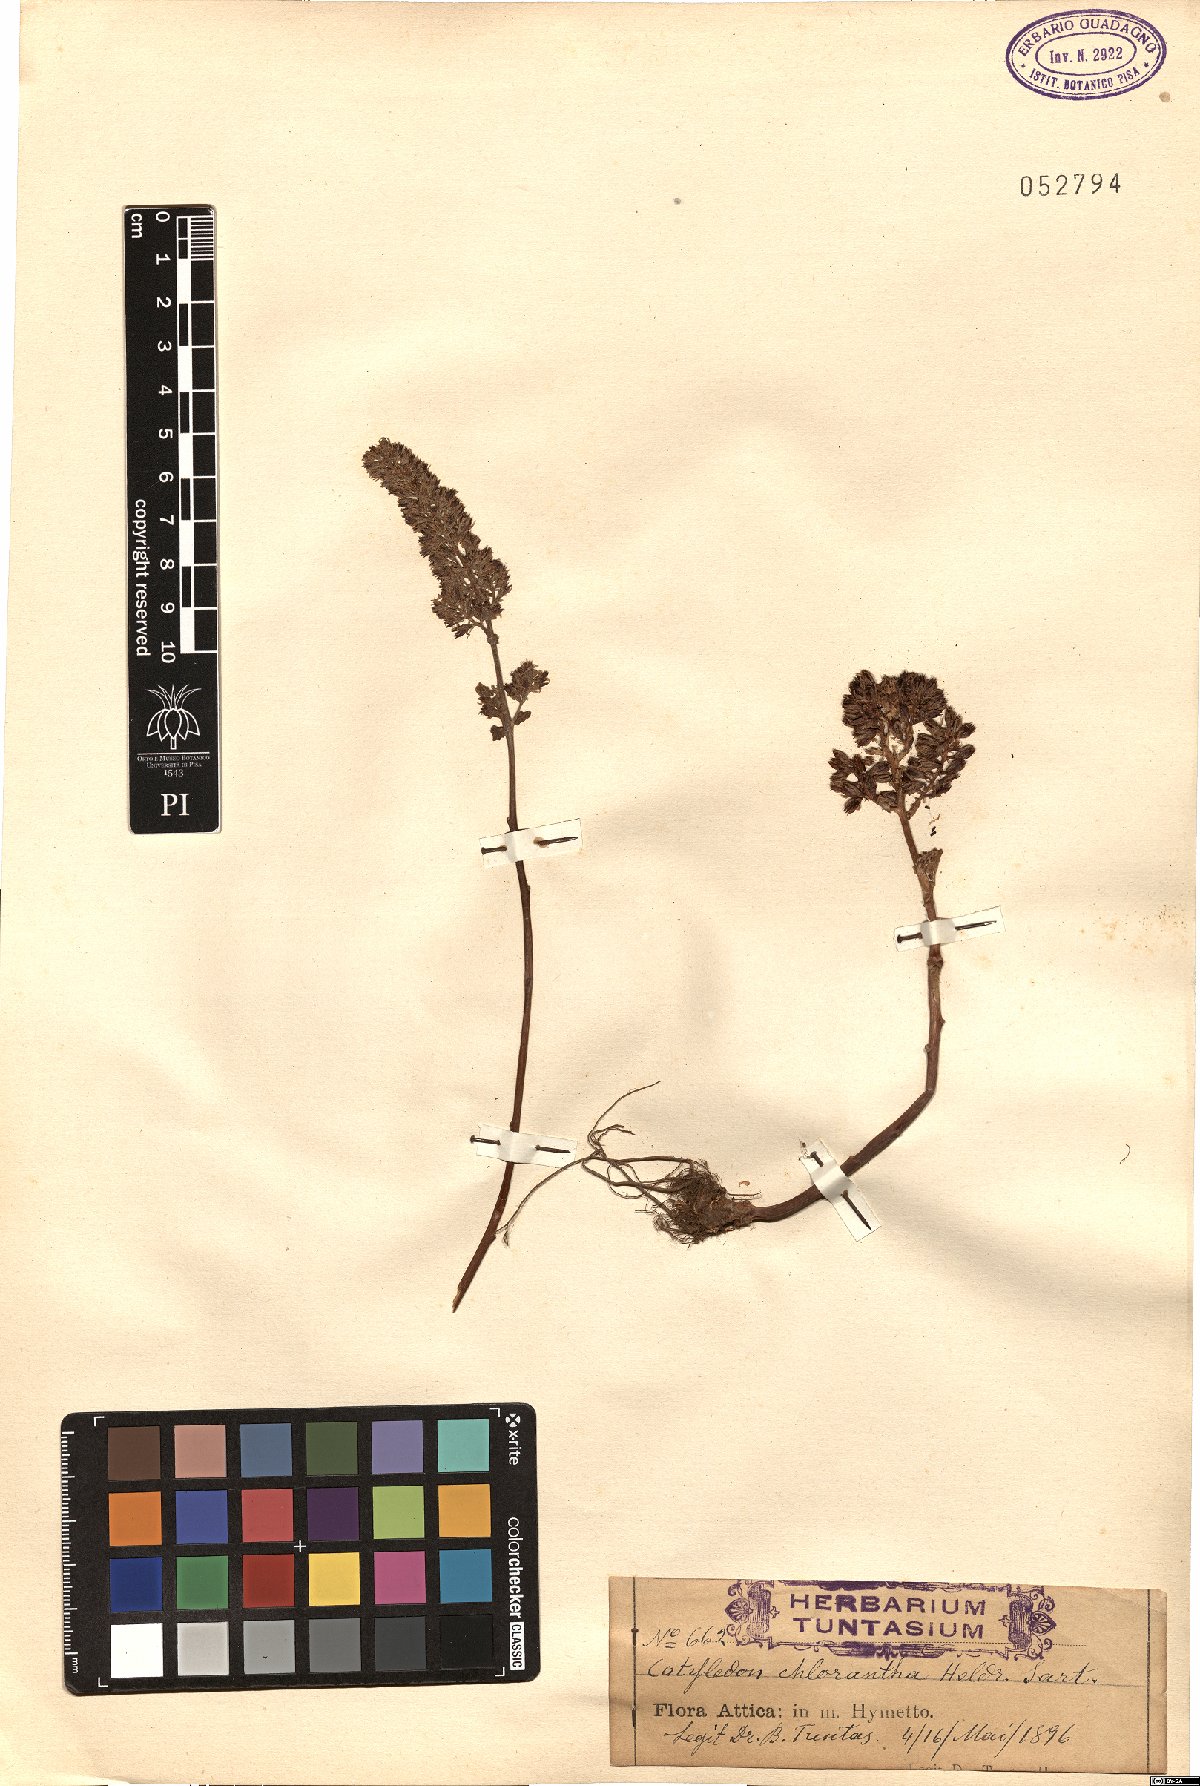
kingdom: Plantae
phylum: Tracheophyta
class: Magnoliopsida
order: Saxifragales
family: Crassulaceae
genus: Umbilicus
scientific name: Umbilicus chloranthus
